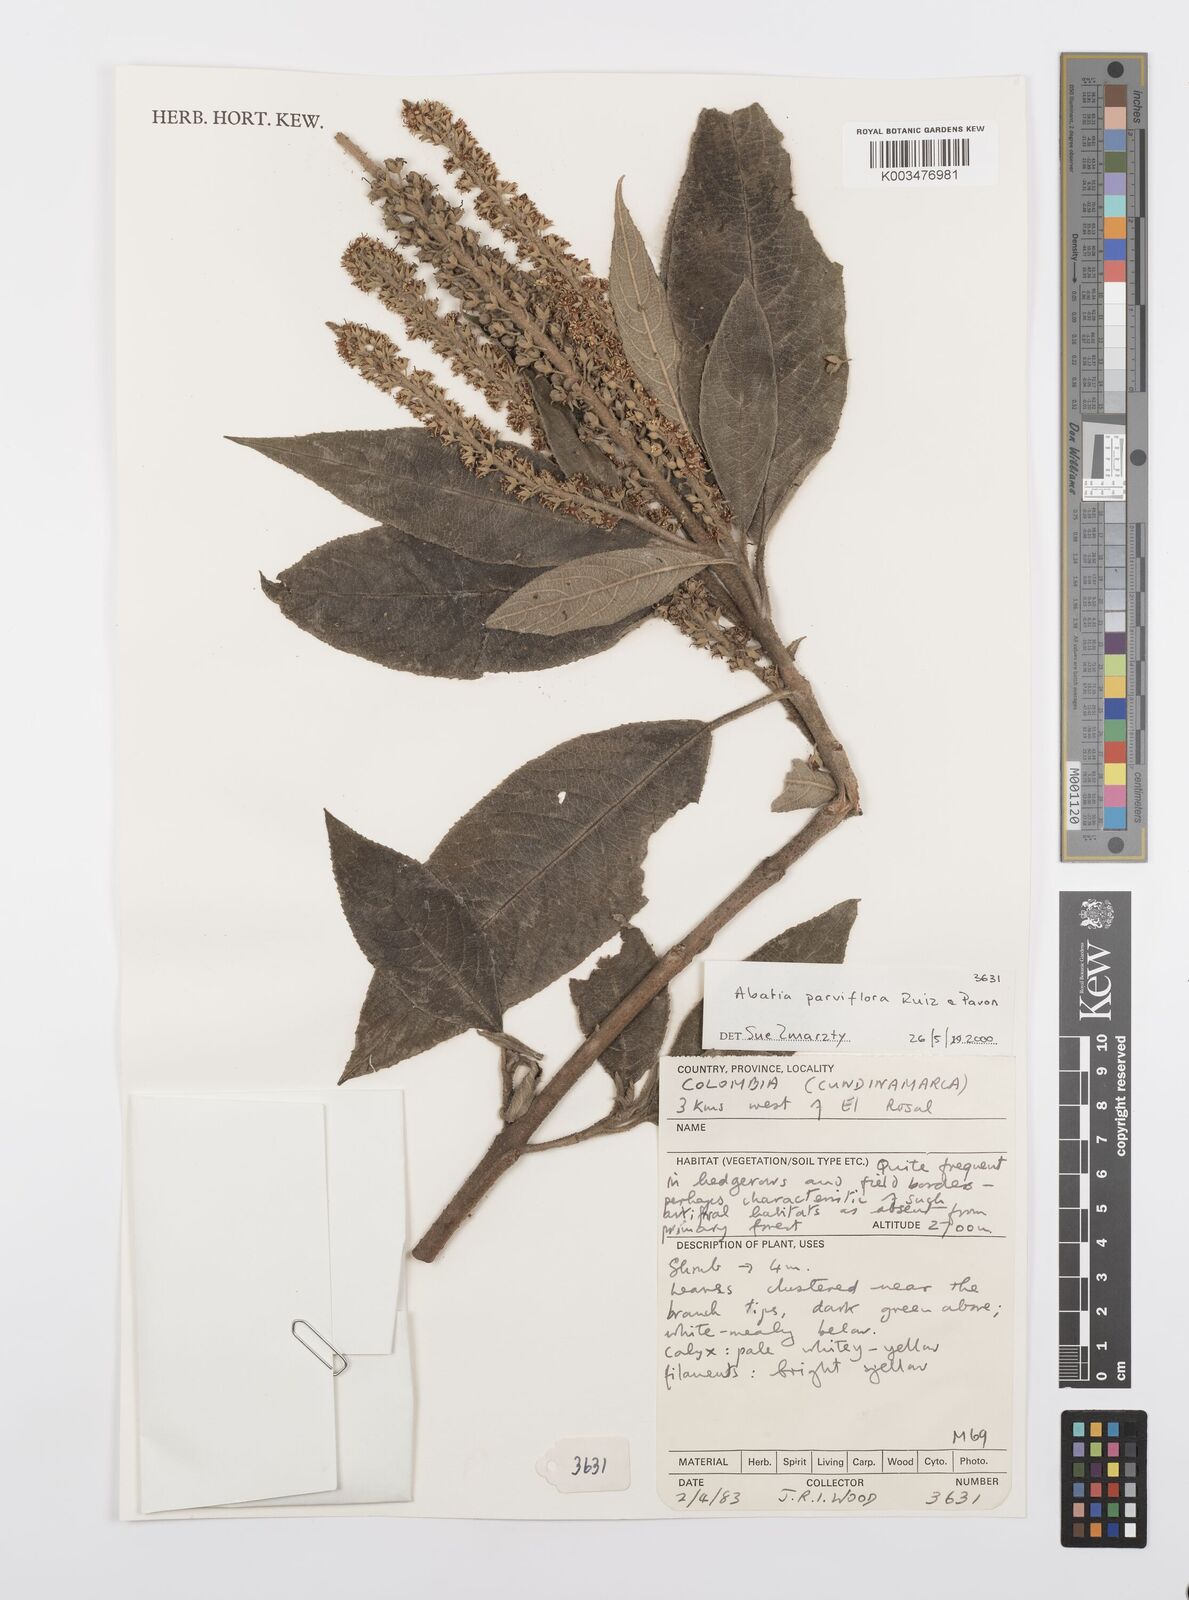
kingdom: Plantae
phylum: Tracheophyta
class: Magnoliopsida
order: Malpighiales
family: Salicaceae
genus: Abatia
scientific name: Abatia parviflora
